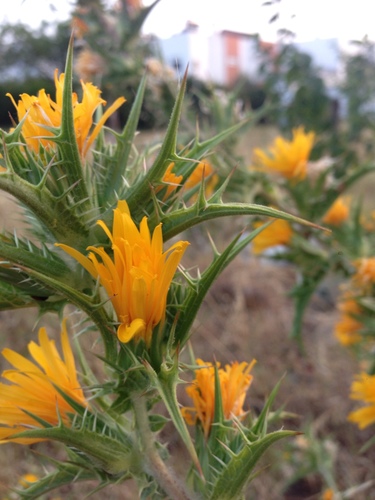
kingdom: Plantae
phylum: Tracheophyta
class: Magnoliopsida
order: Asterales
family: Asteraceae
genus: Scolymus
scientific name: Scolymus hispanicus
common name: Golden thistle
